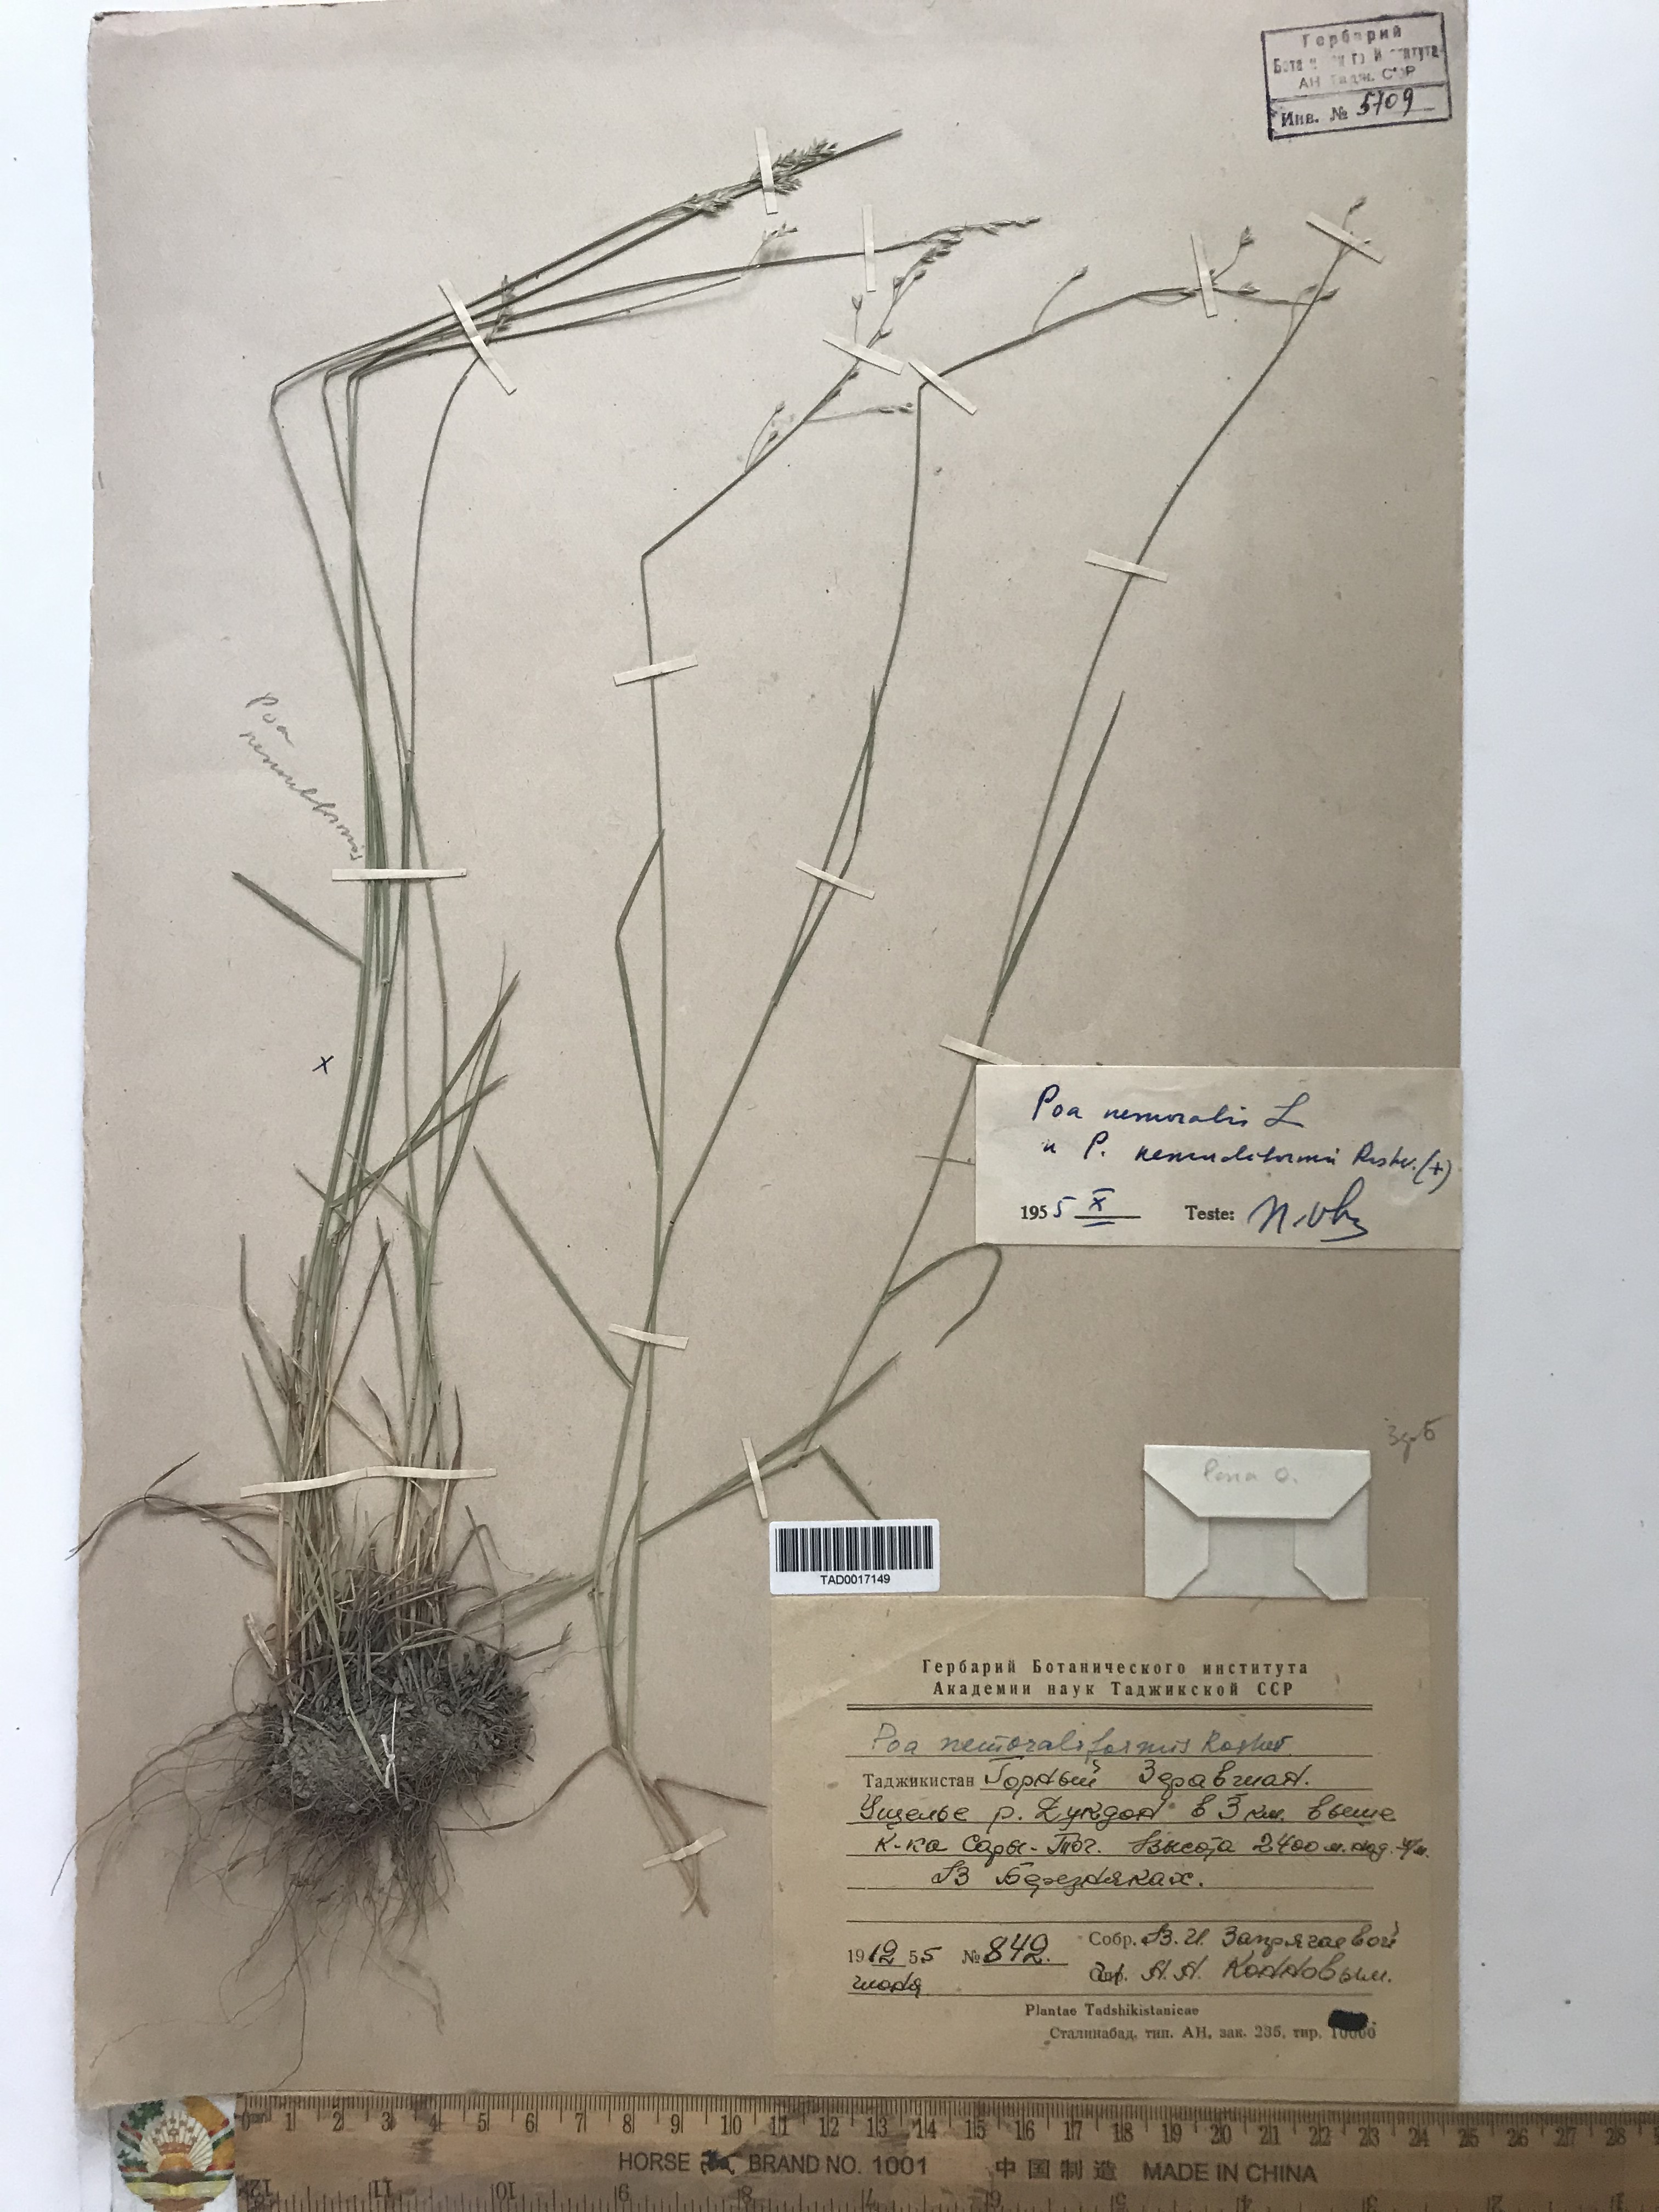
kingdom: Plantae
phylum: Tracheophyta
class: Liliopsida
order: Poales
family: Poaceae
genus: Poa
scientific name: Poa urssulensis
